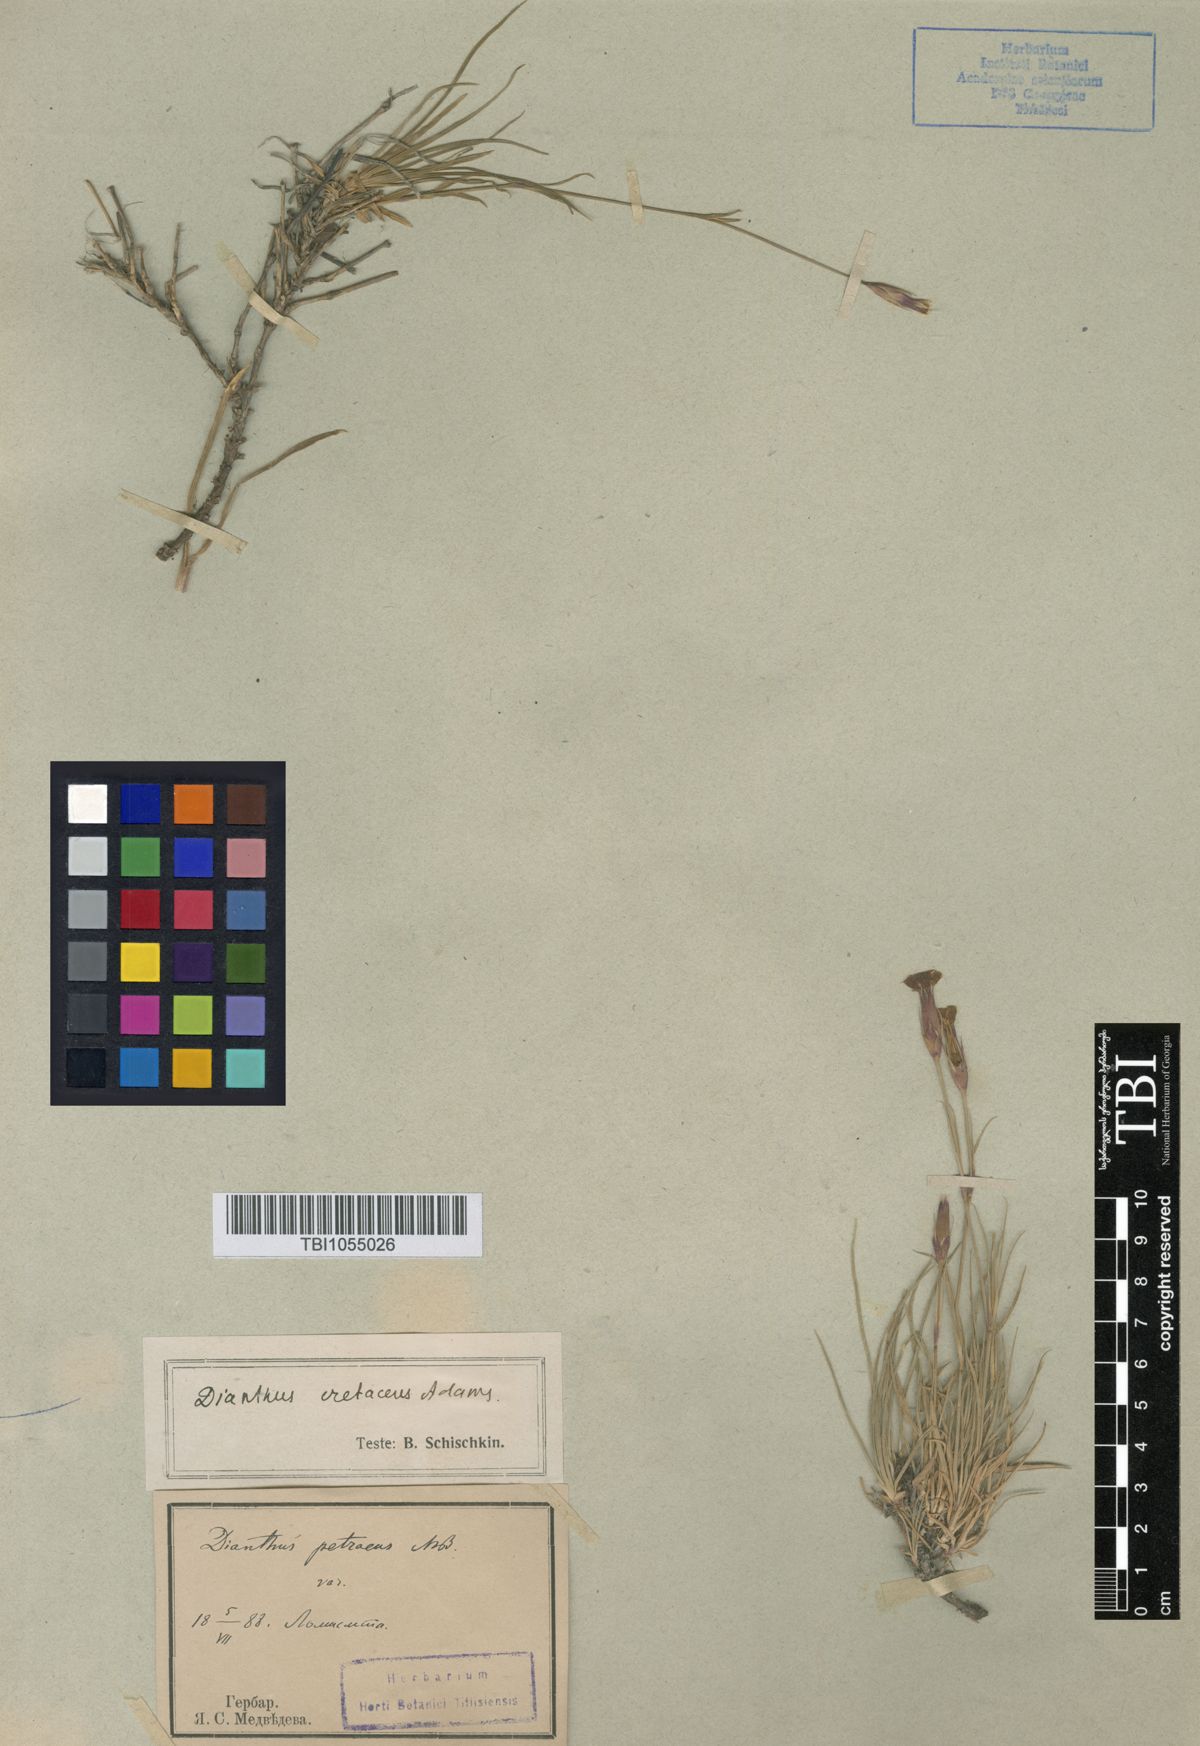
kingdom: Plantae
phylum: Tracheophyta
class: Magnoliopsida
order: Caryophyllales
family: Caryophyllaceae
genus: Dianthus
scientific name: Dianthus cretaceus
